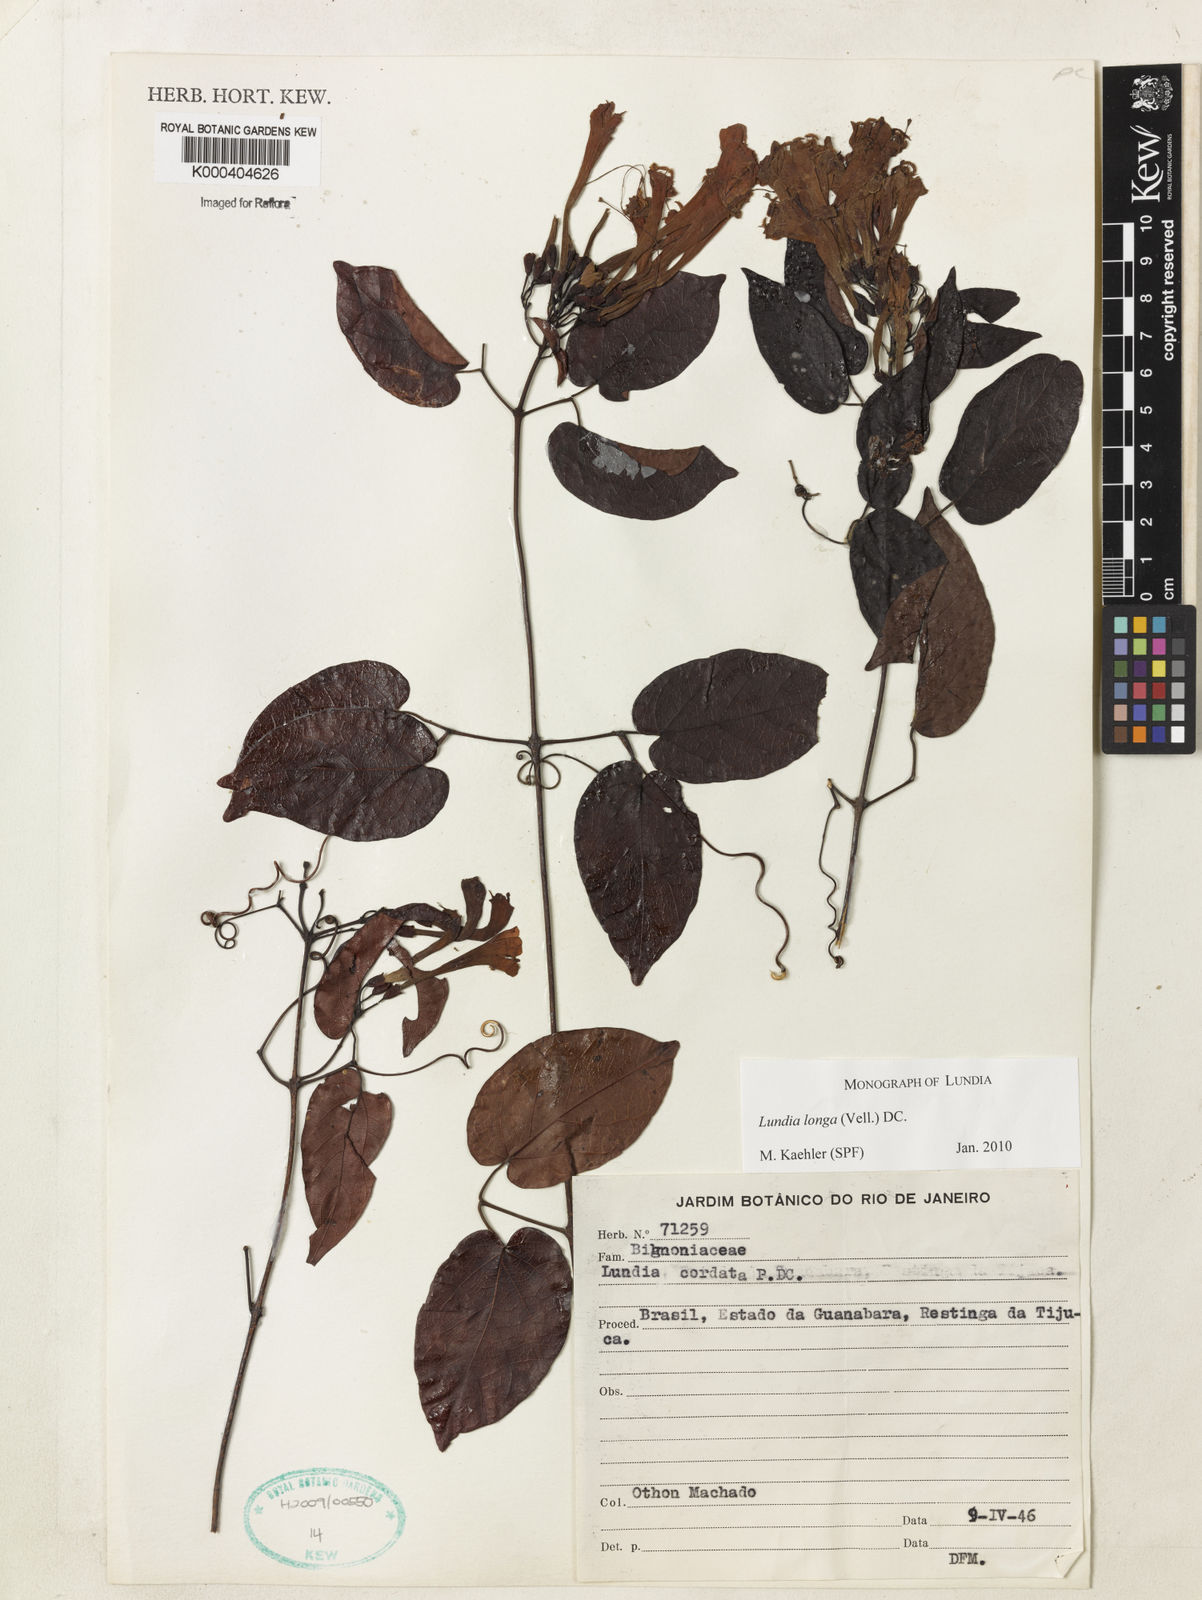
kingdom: Plantae
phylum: Tracheophyta
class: Magnoliopsida
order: Lamiales
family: Bignoniaceae
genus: Lundia
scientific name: Lundia longa
